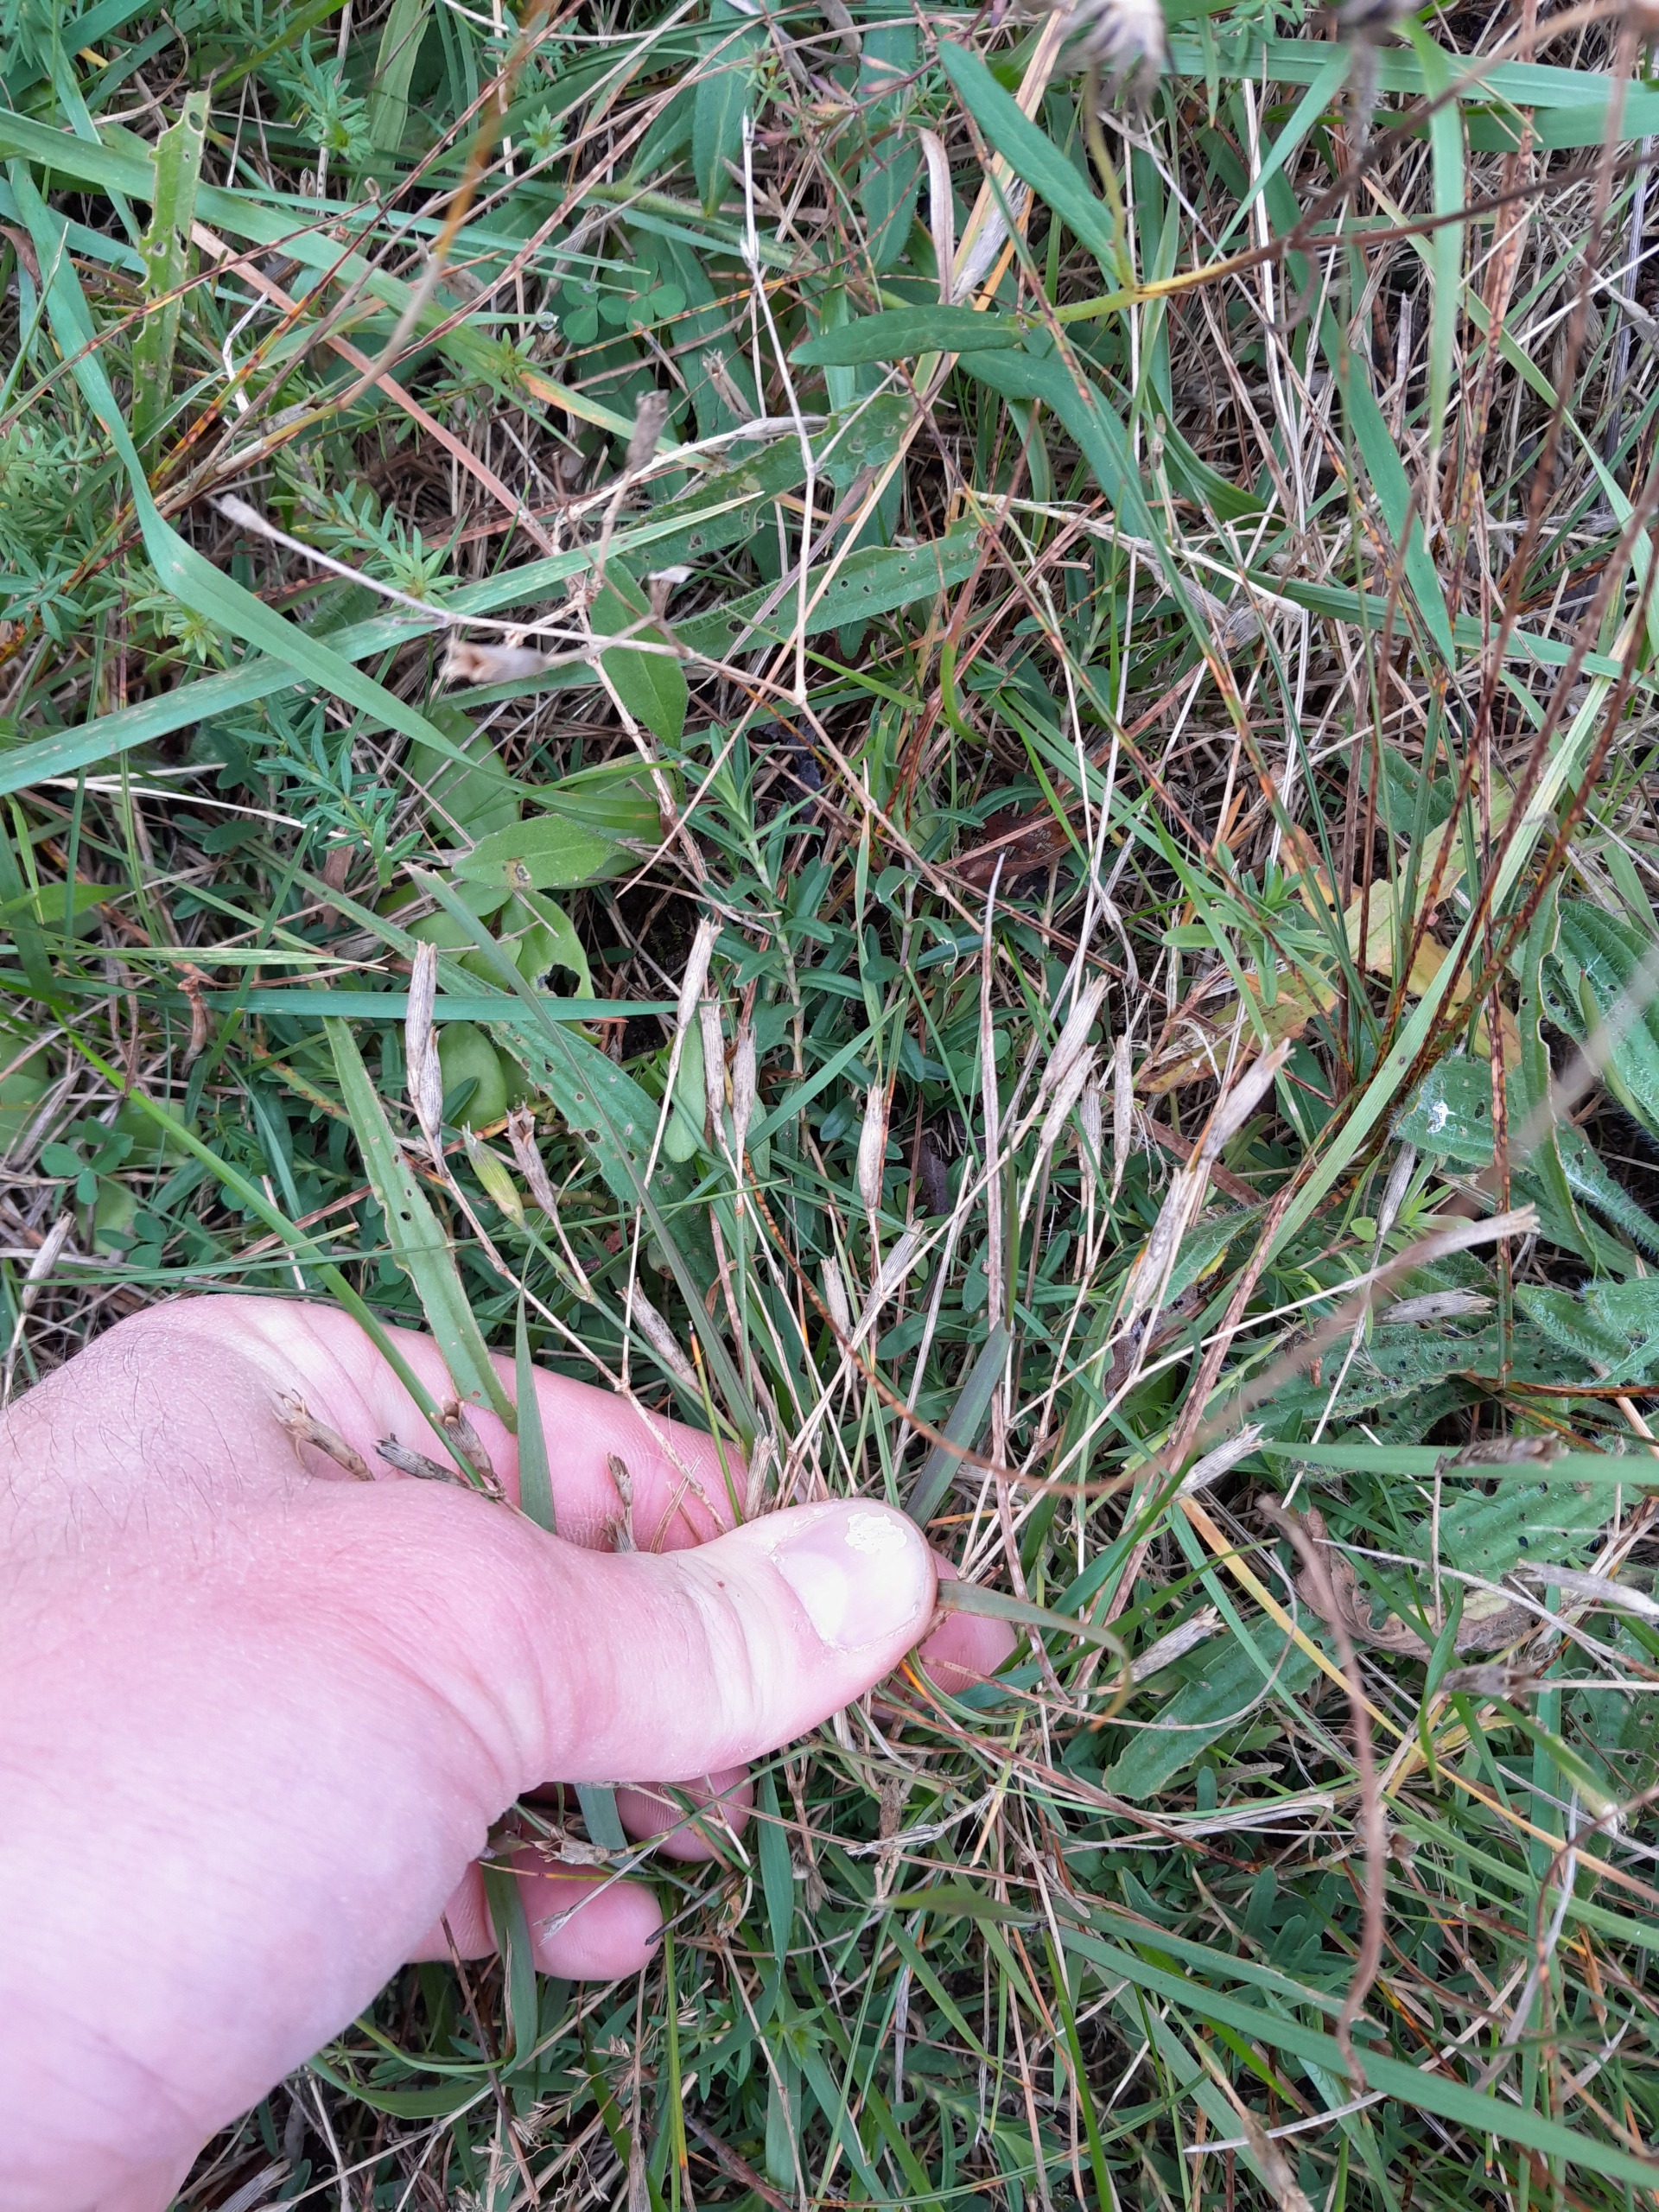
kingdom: Plantae
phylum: Tracheophyta
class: Magnoliopsida
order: Caryophyllales
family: Caryophyllaceae
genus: Dianthus
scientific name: Dianthus deltoides
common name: Bakke-nellike
